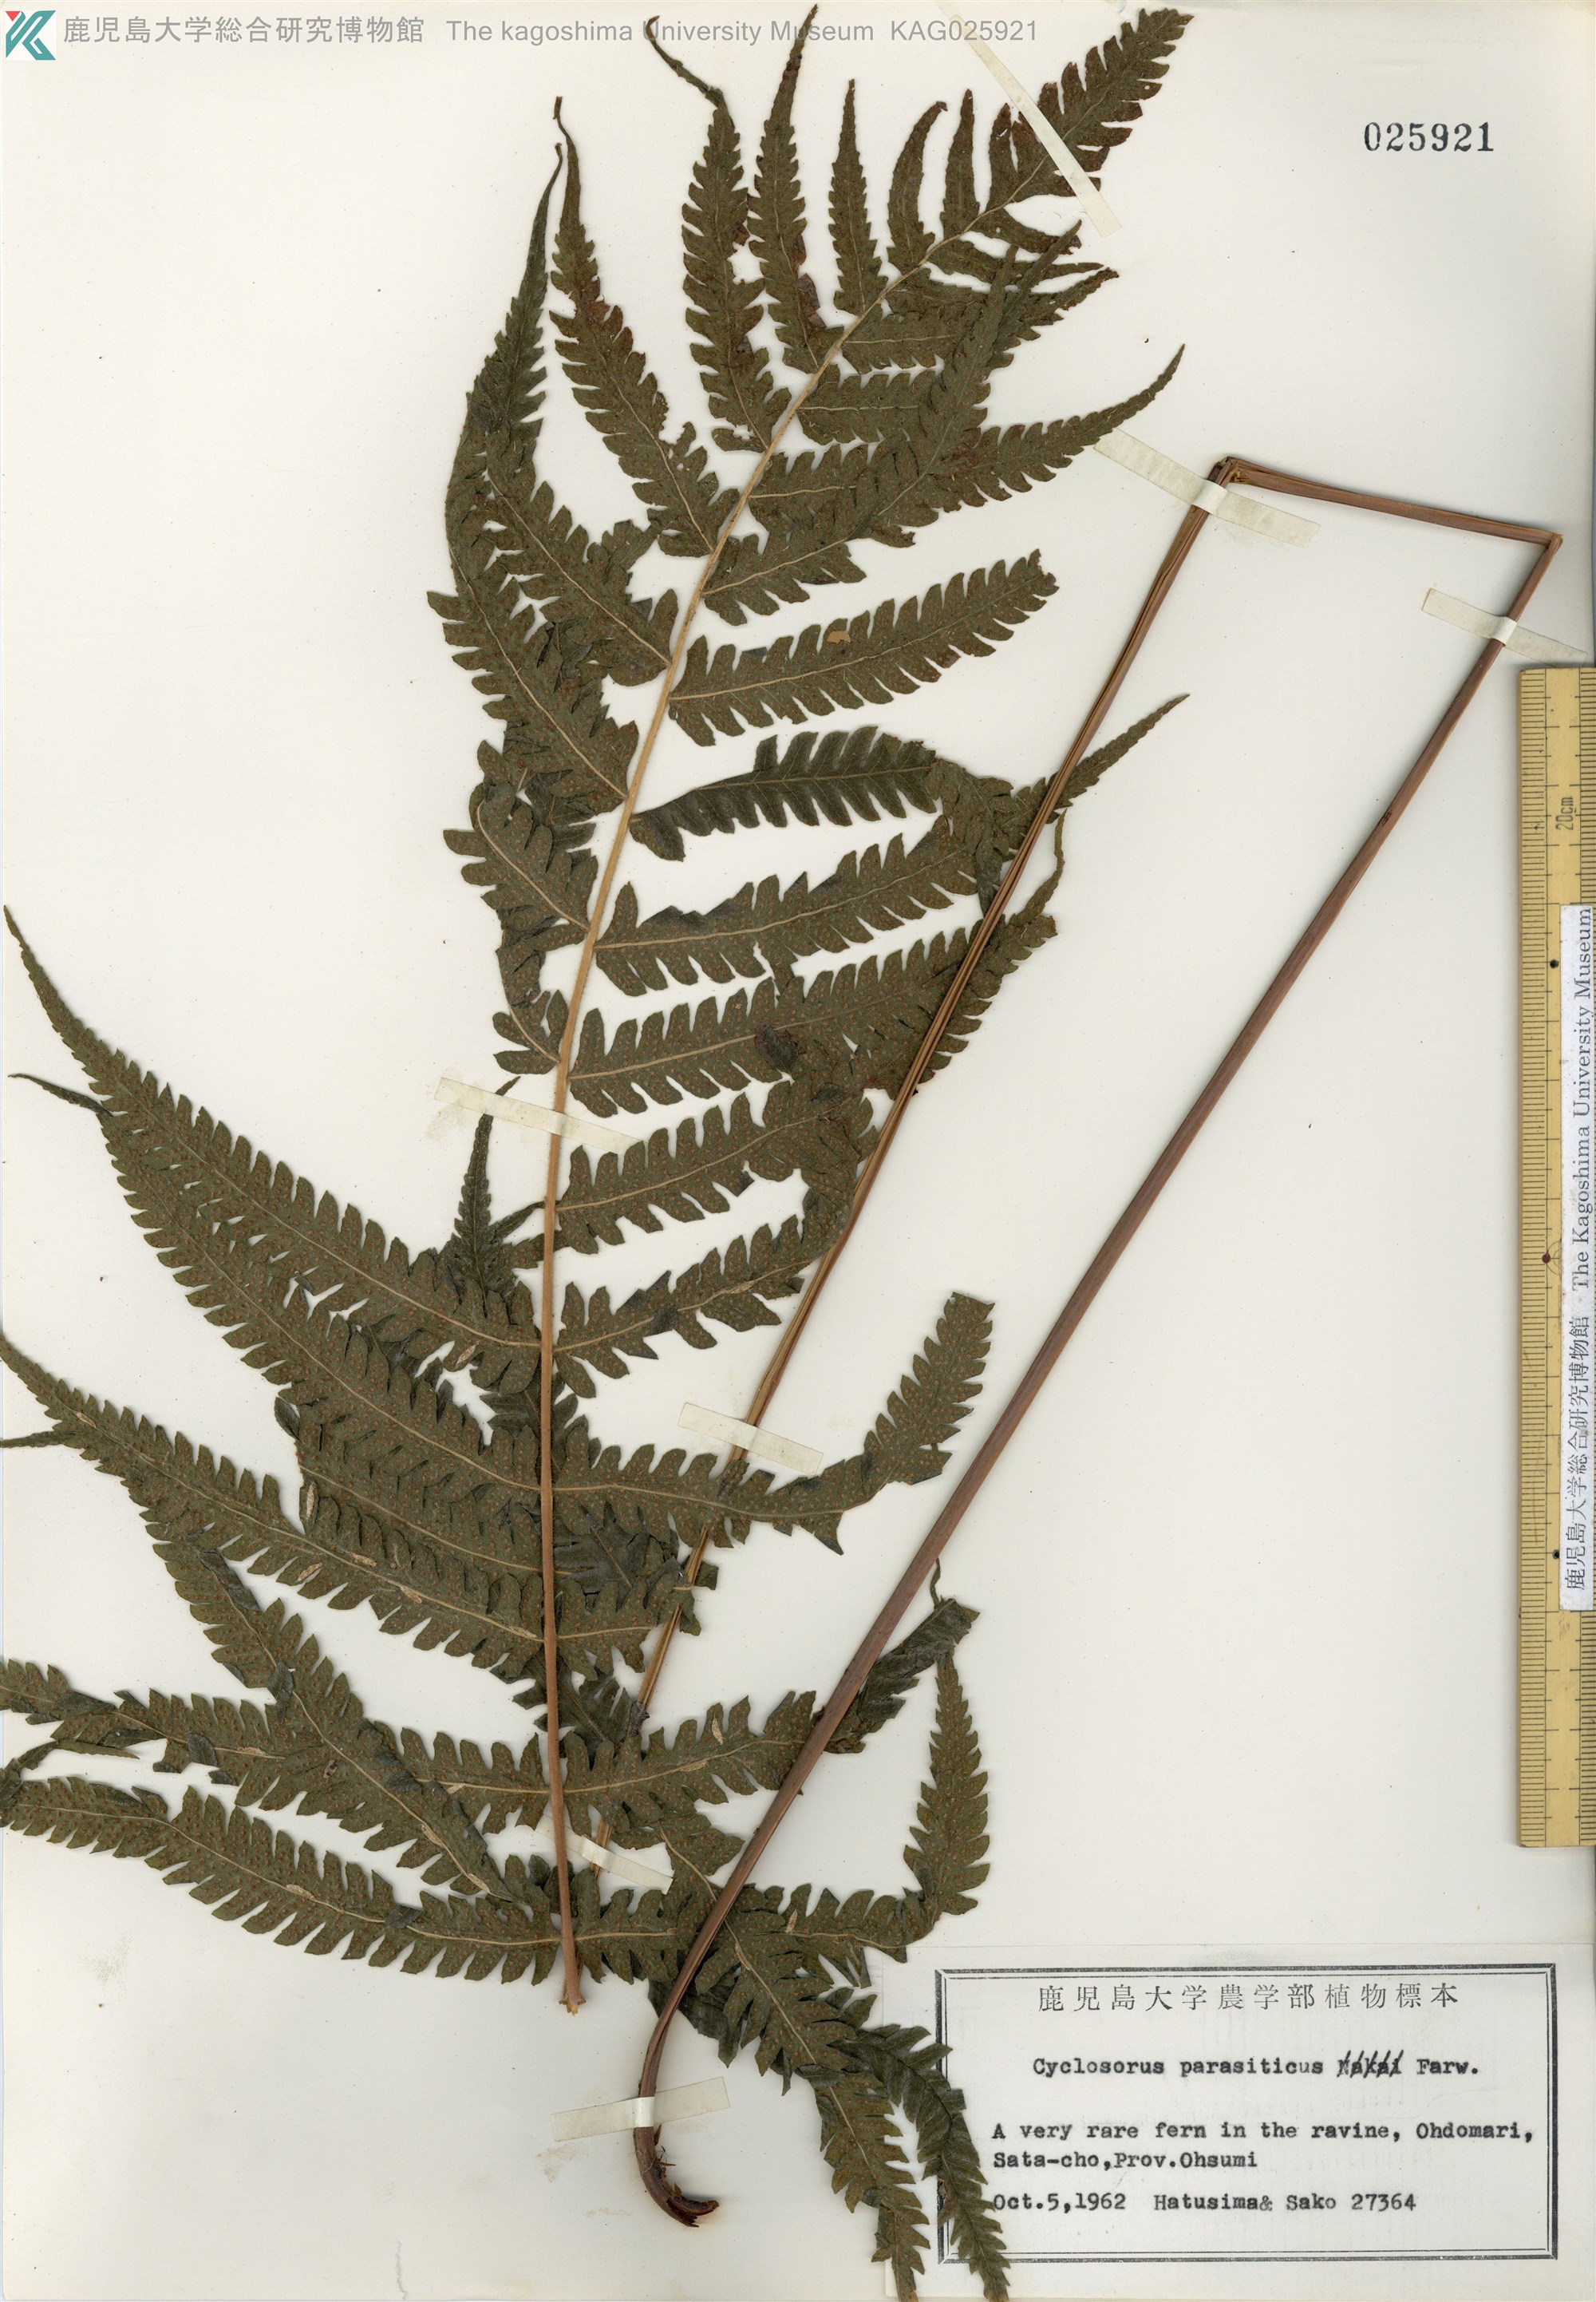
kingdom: Plantae
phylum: Tracheophyta
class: Polypodiopsida
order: Polypodiales
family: Thelypteridaceae
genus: Christella
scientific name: Christella parasitica
